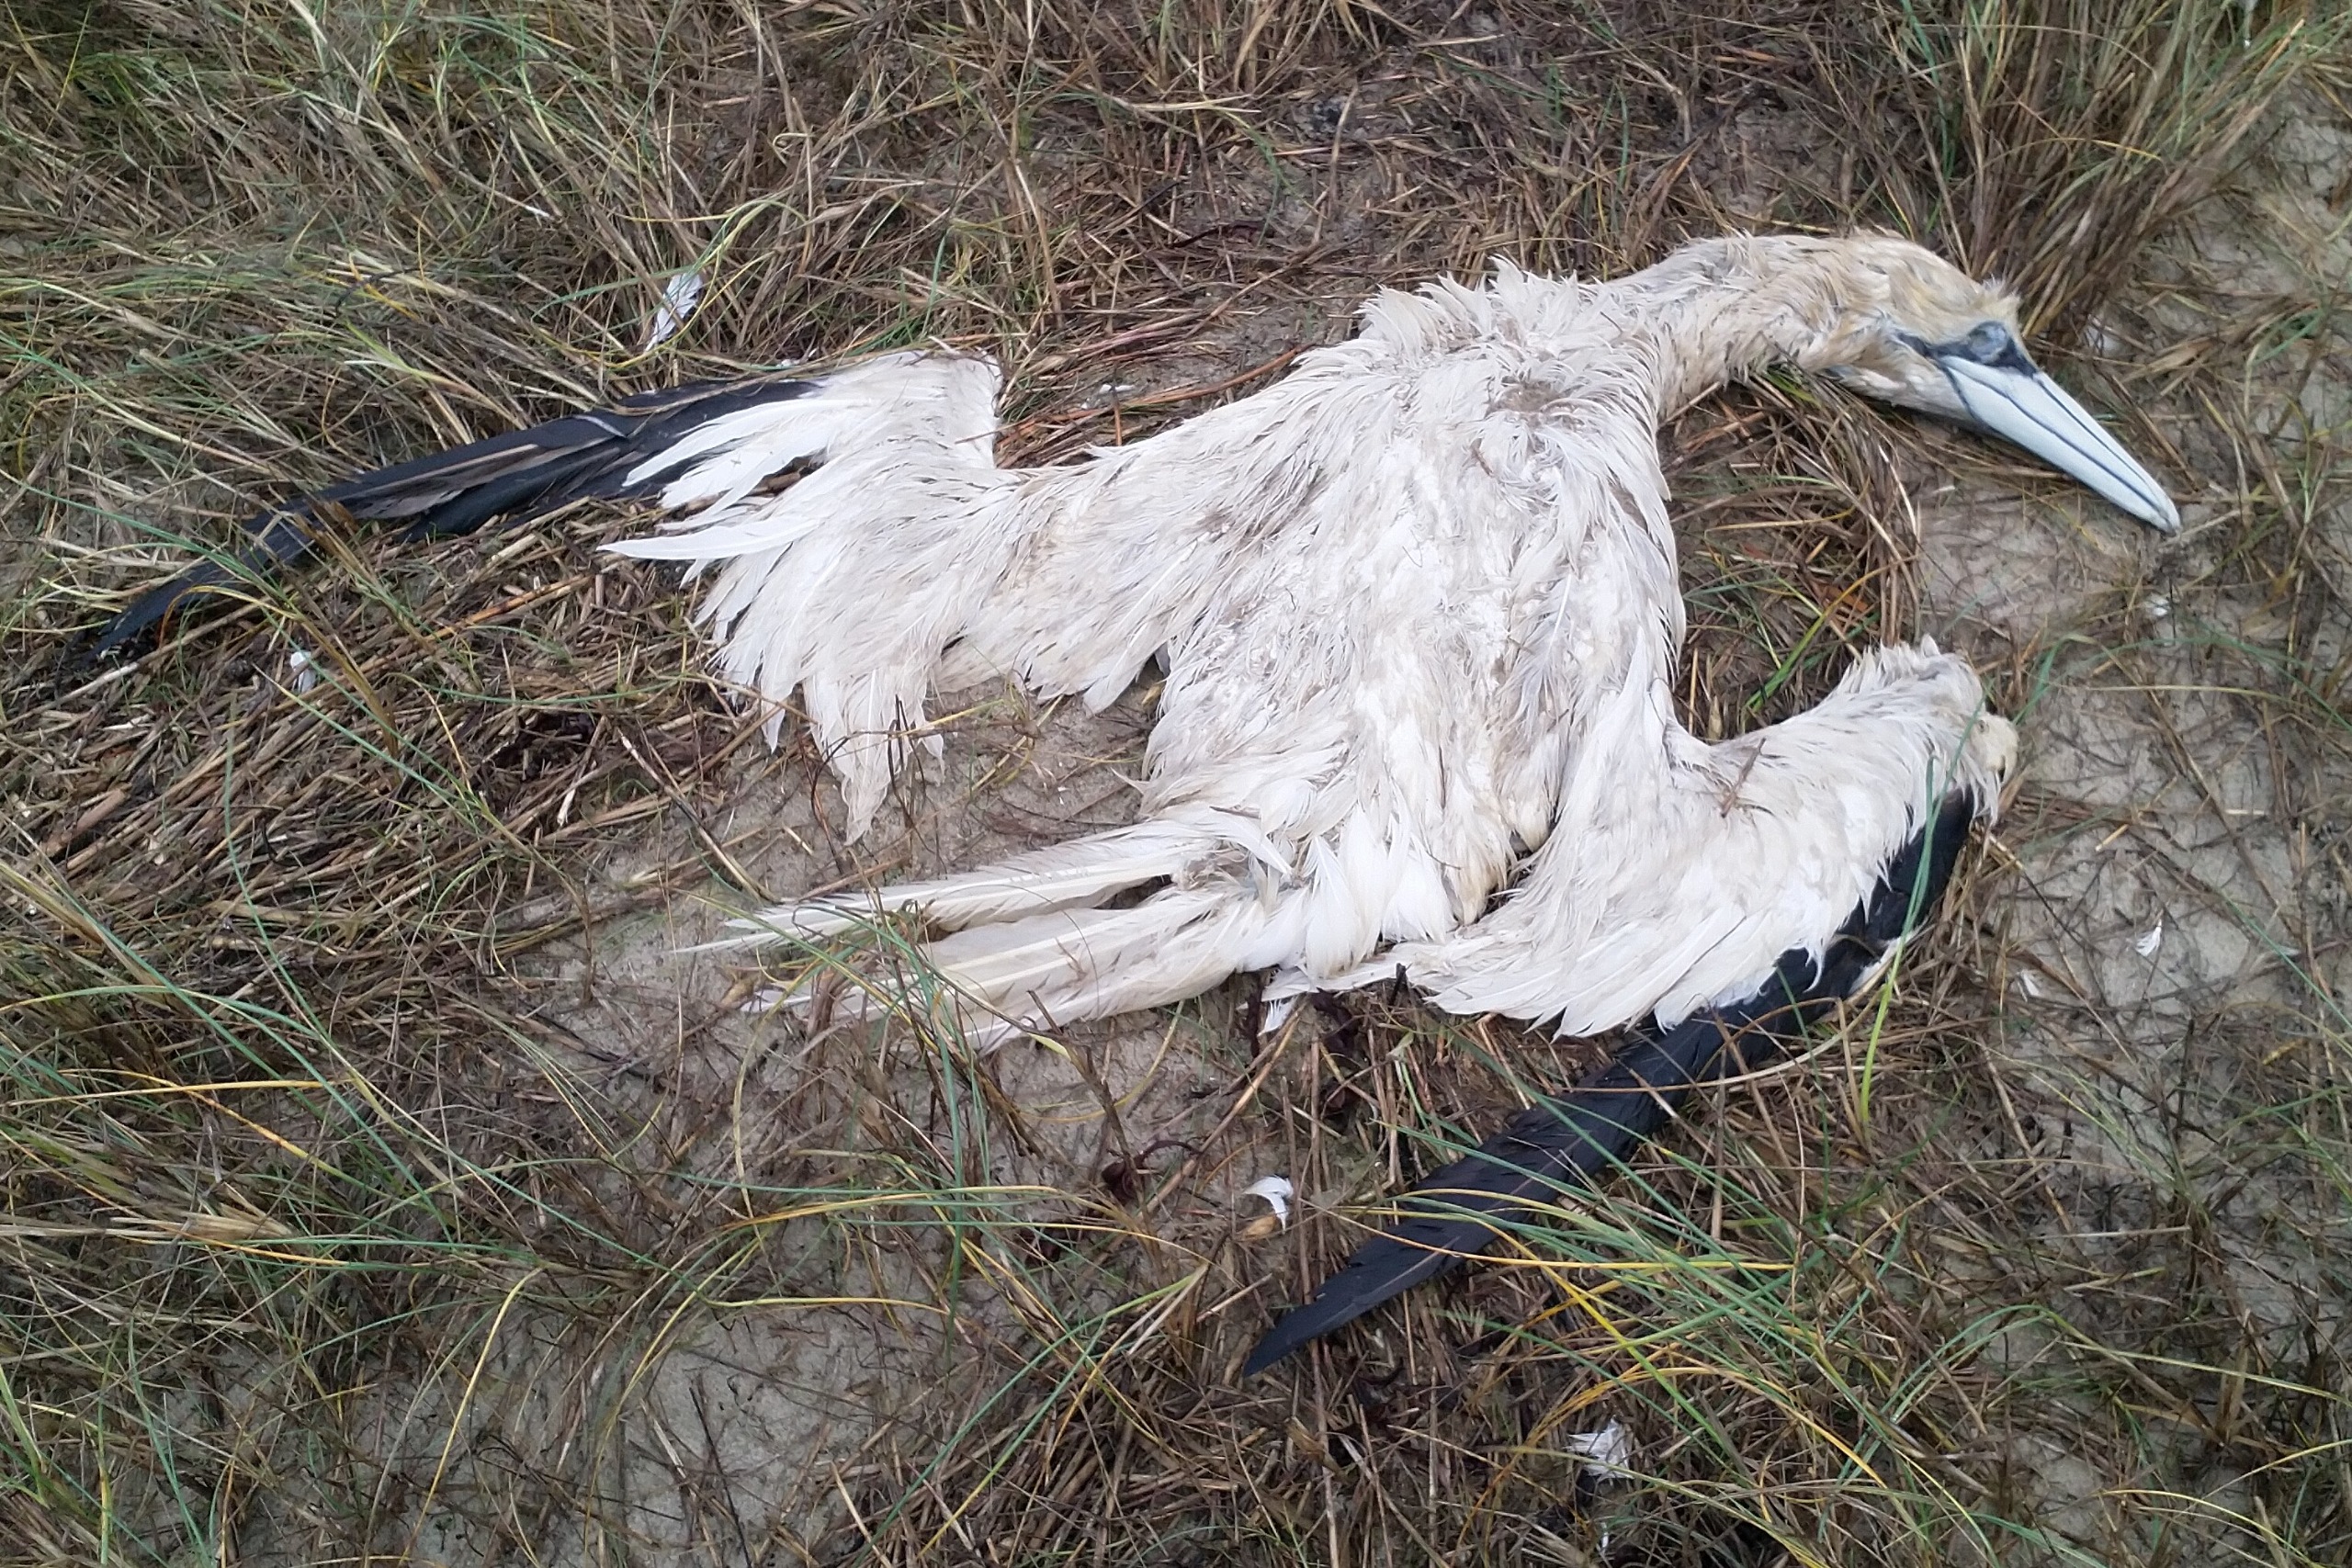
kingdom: Animalia
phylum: Chordata
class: Aves
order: Suliformes
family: Sulidae
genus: Morus
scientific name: Morus bassanus
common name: Sule
